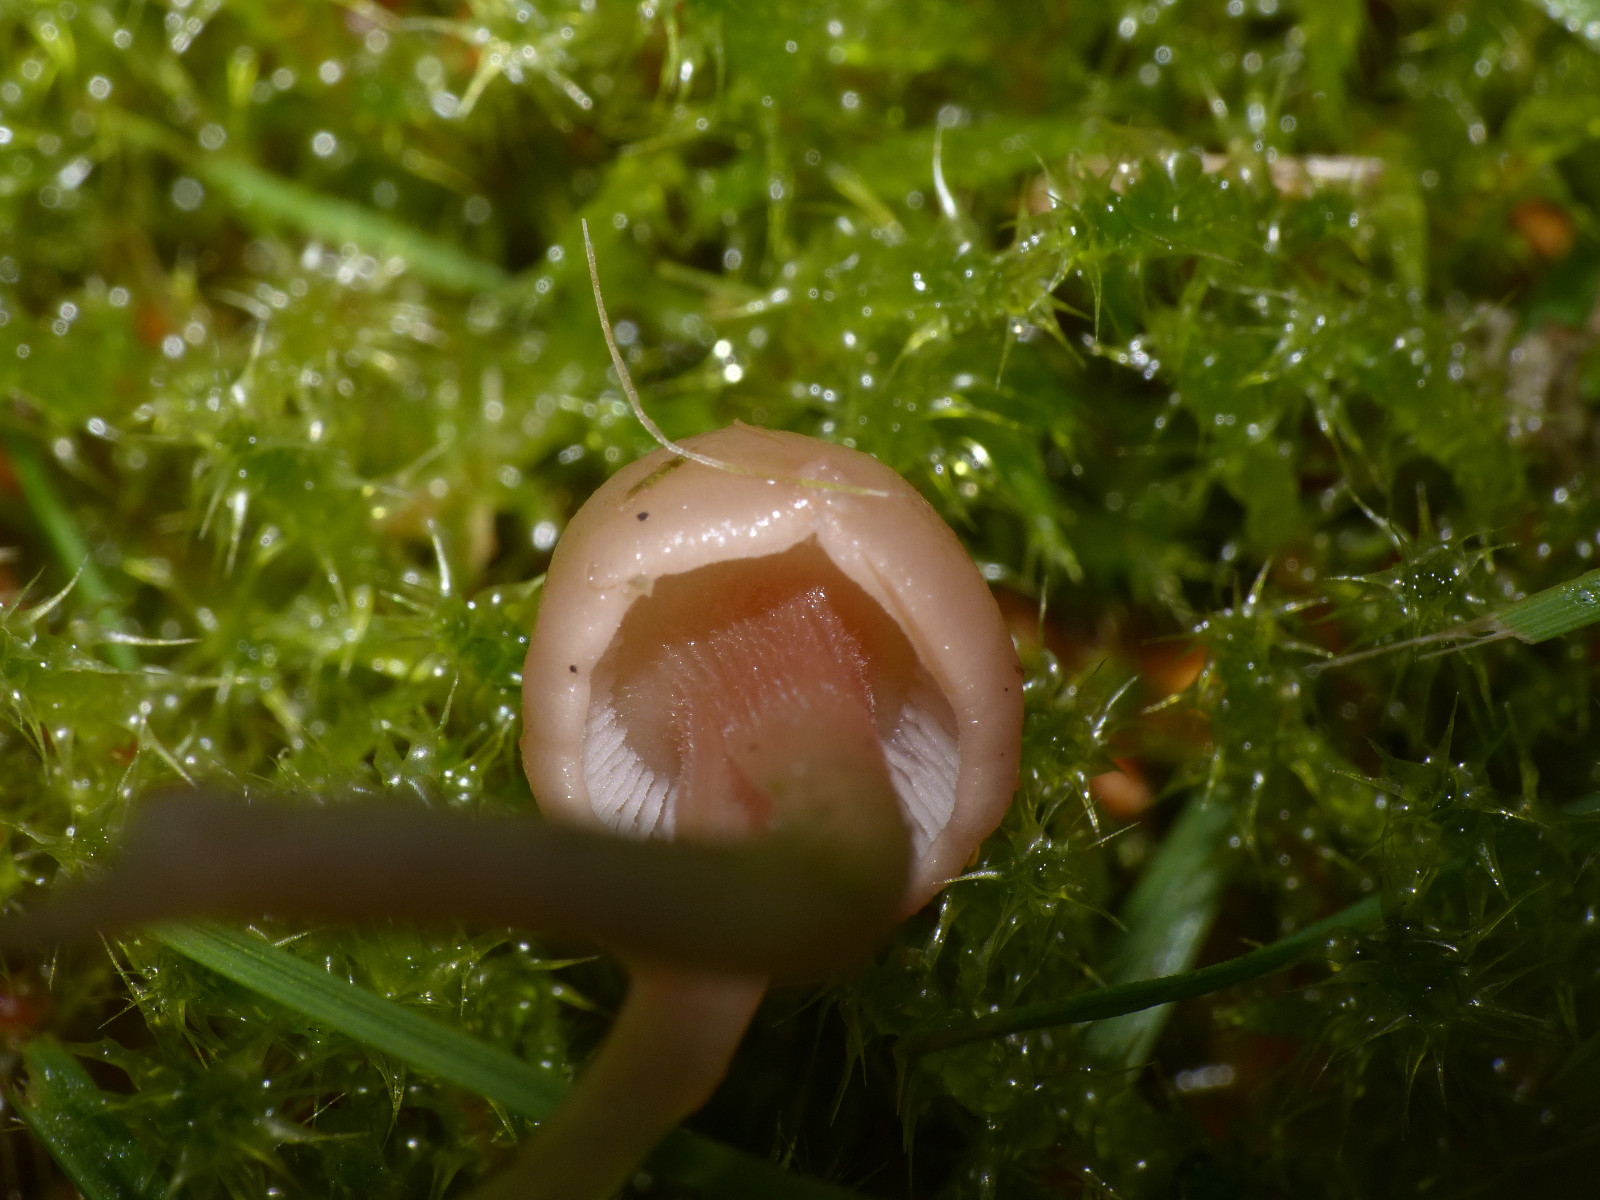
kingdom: Fungi
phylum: Basidiomycota
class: Agaricomycetes
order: Agaricales
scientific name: Agaricales
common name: champignonordenen
